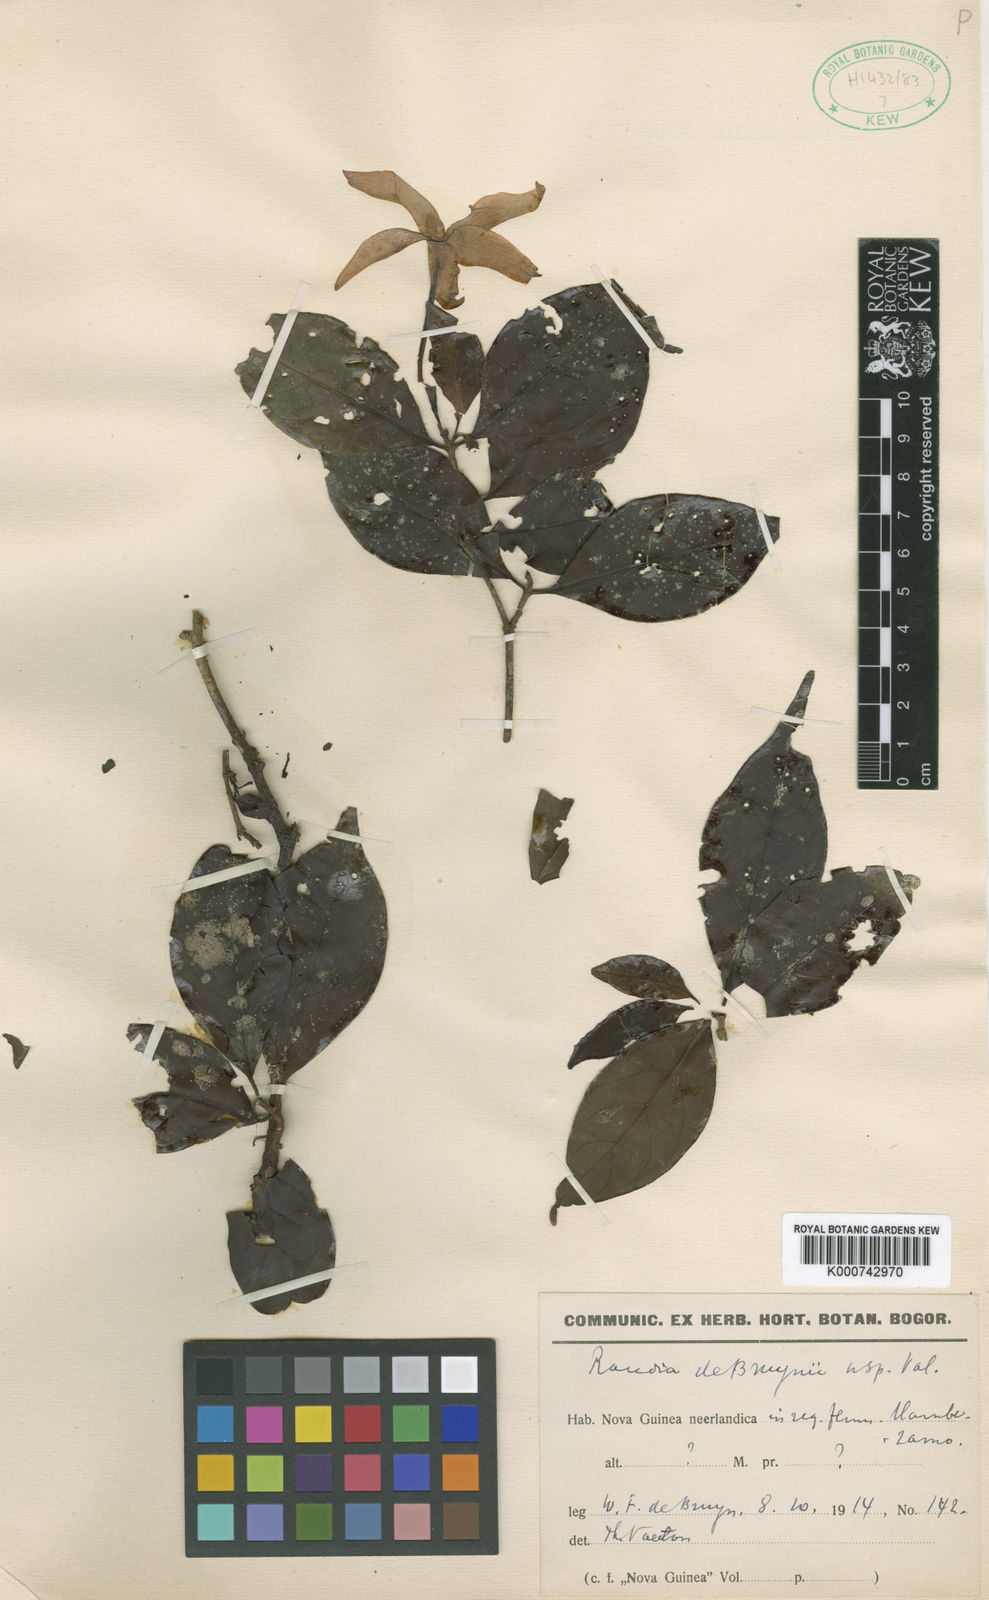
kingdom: Plantae
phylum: Tracheophyta
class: Magnoliopsida
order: Gentianales
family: Rubiaceae
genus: Randia
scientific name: Randia debruynii
